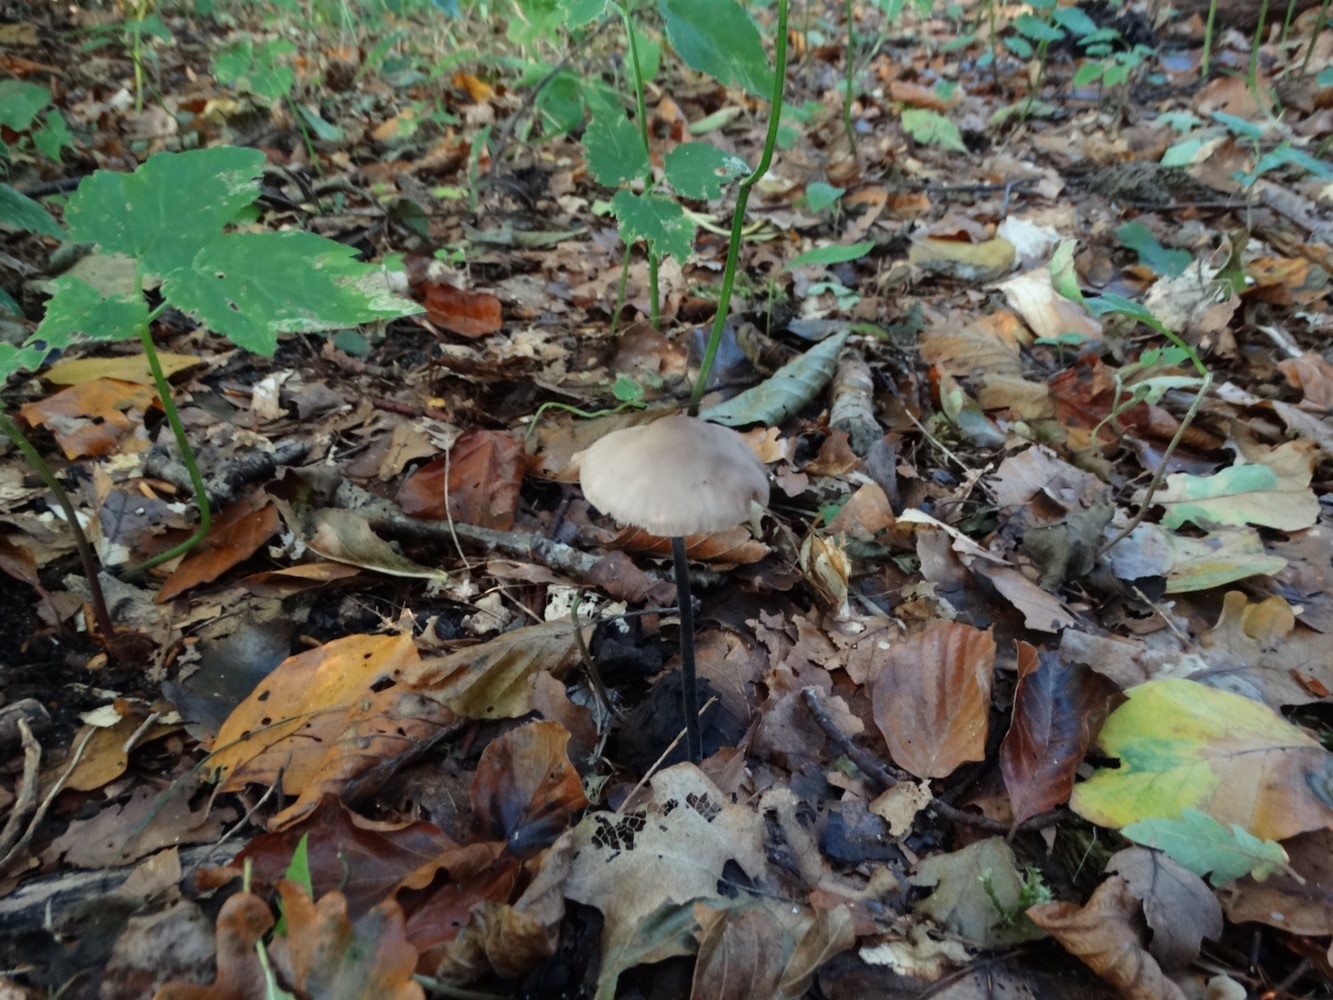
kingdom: Fungi
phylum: Basidiomycota
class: Agaricomycetes
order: Agaricales
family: Omphalotaceae
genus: Mycetinis
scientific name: Mycetinis alliaceus
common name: stor løghat
